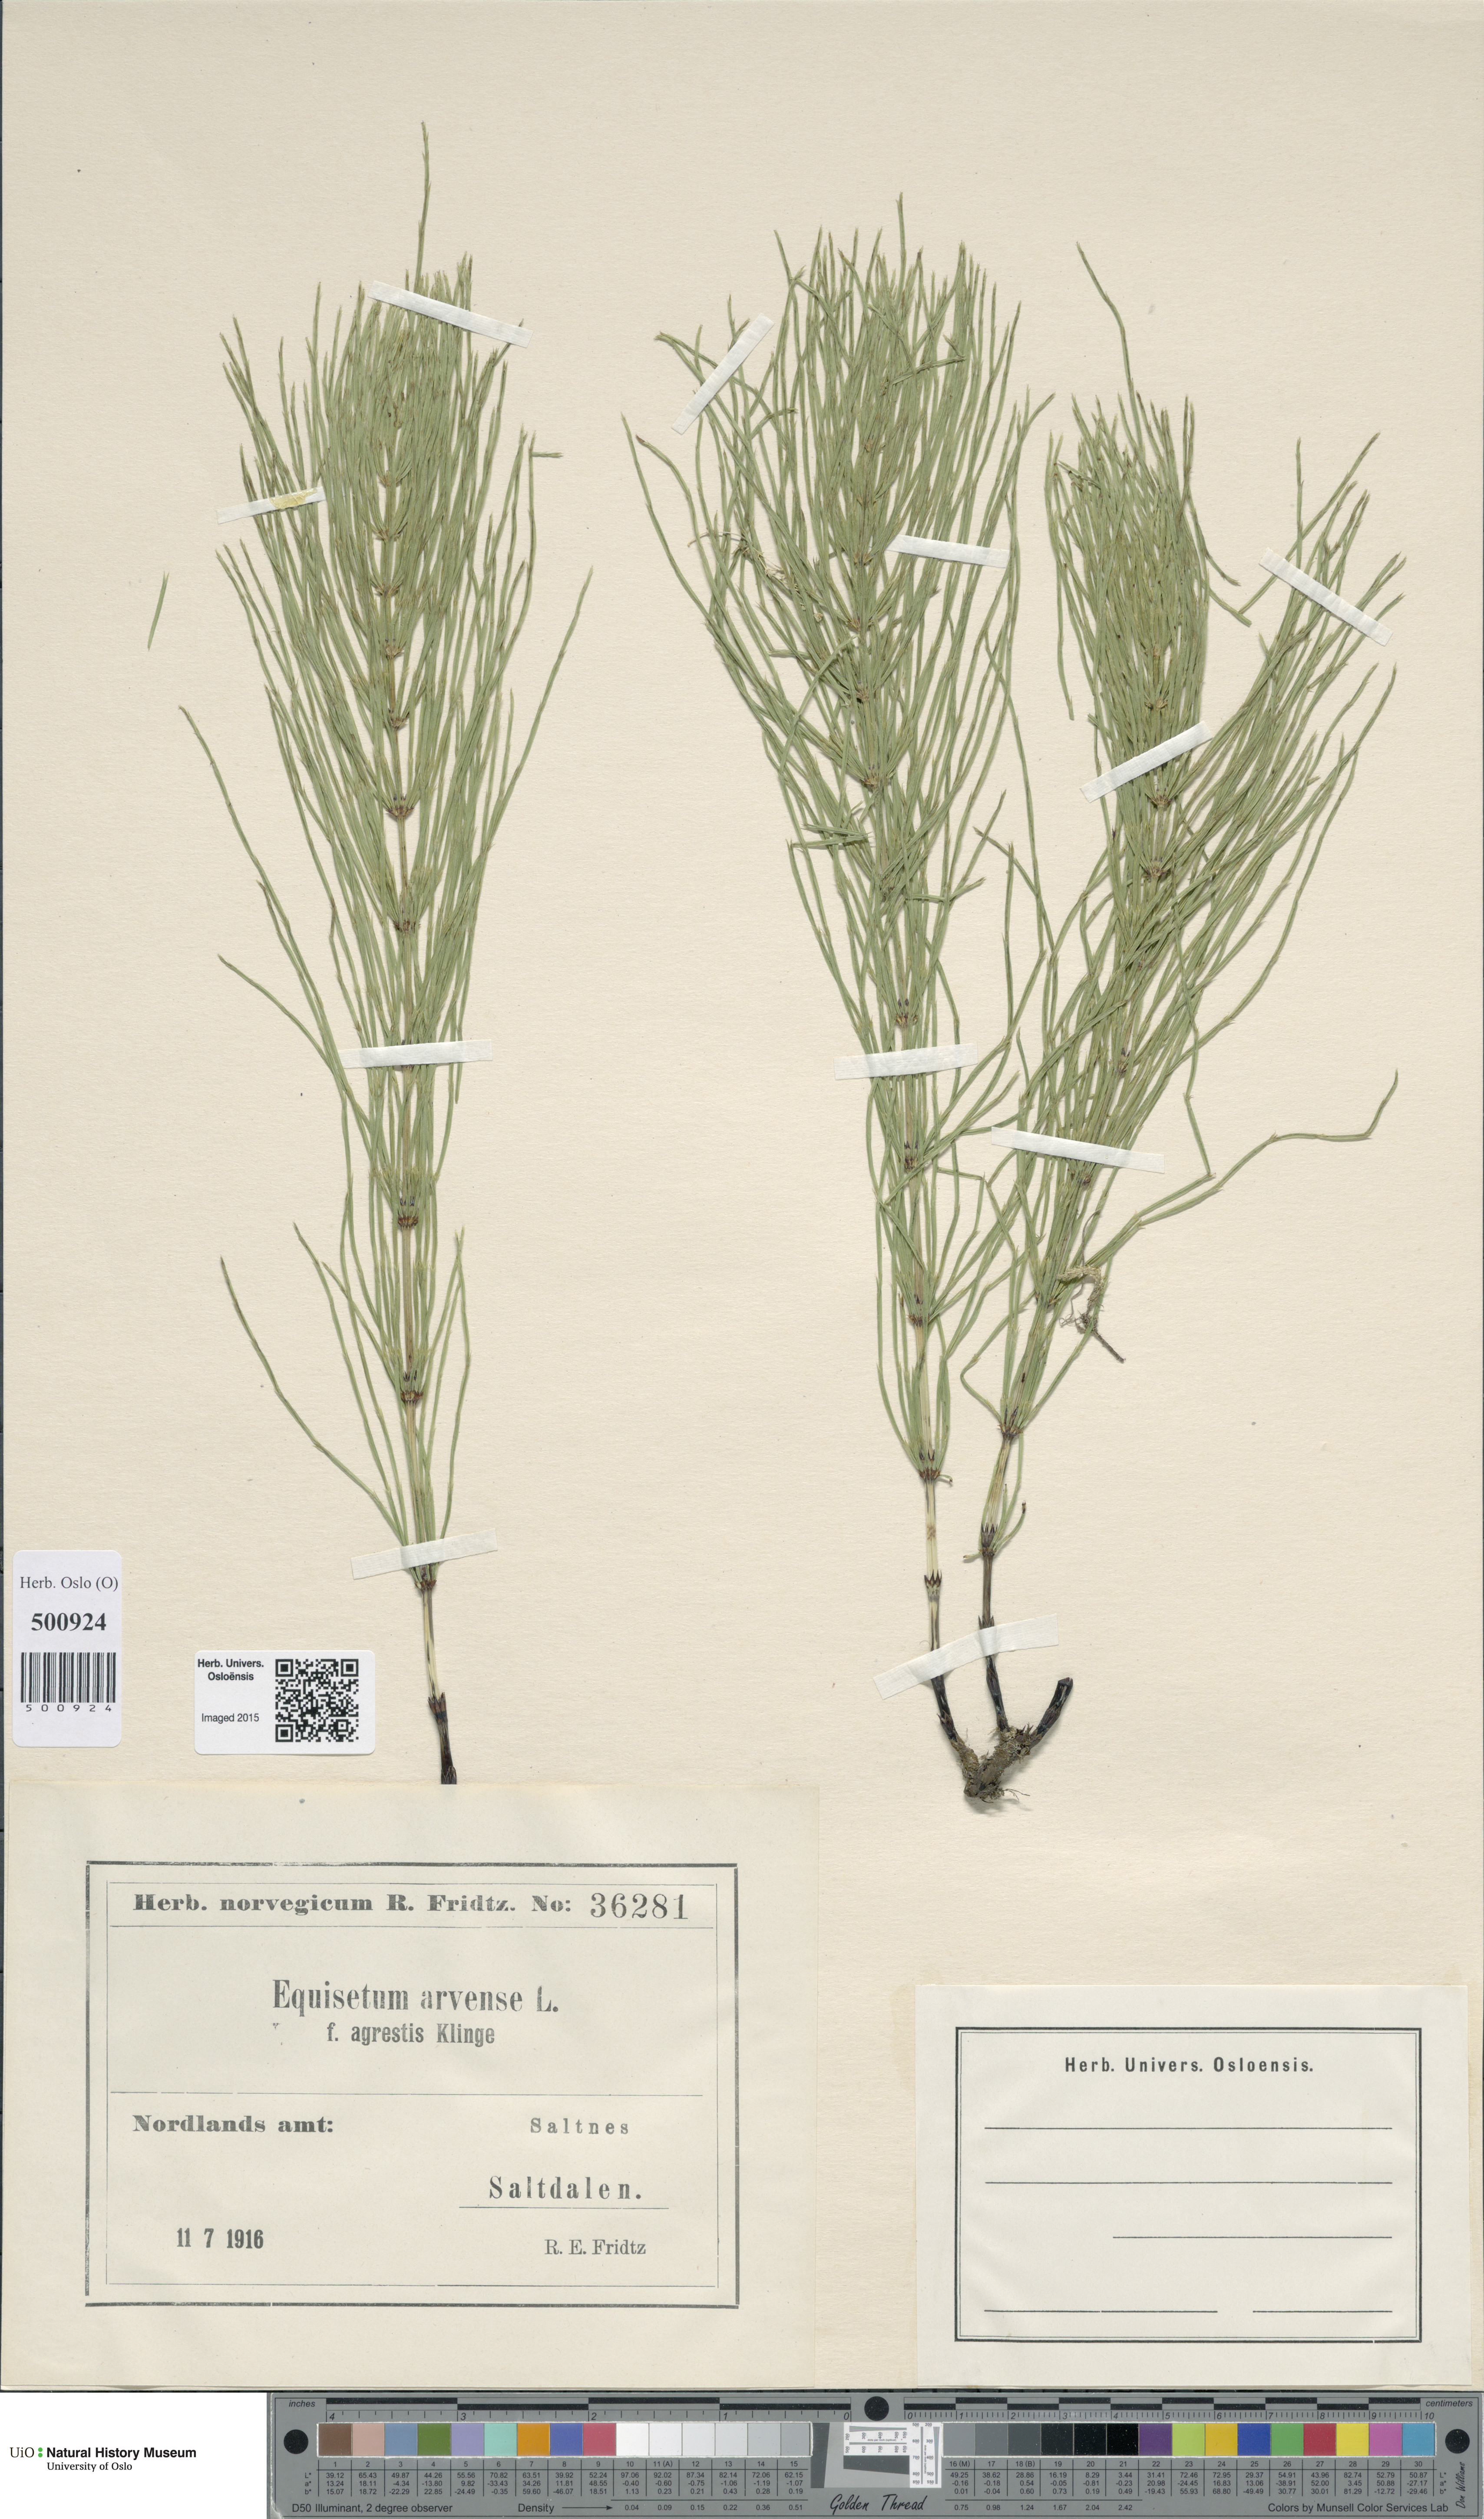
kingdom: Plantae
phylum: Tracheophyta
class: Polypodiopsida
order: Equisetales
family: Equisetaceae
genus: Equisetum
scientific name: Equisetum arvense
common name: Field horsetail
